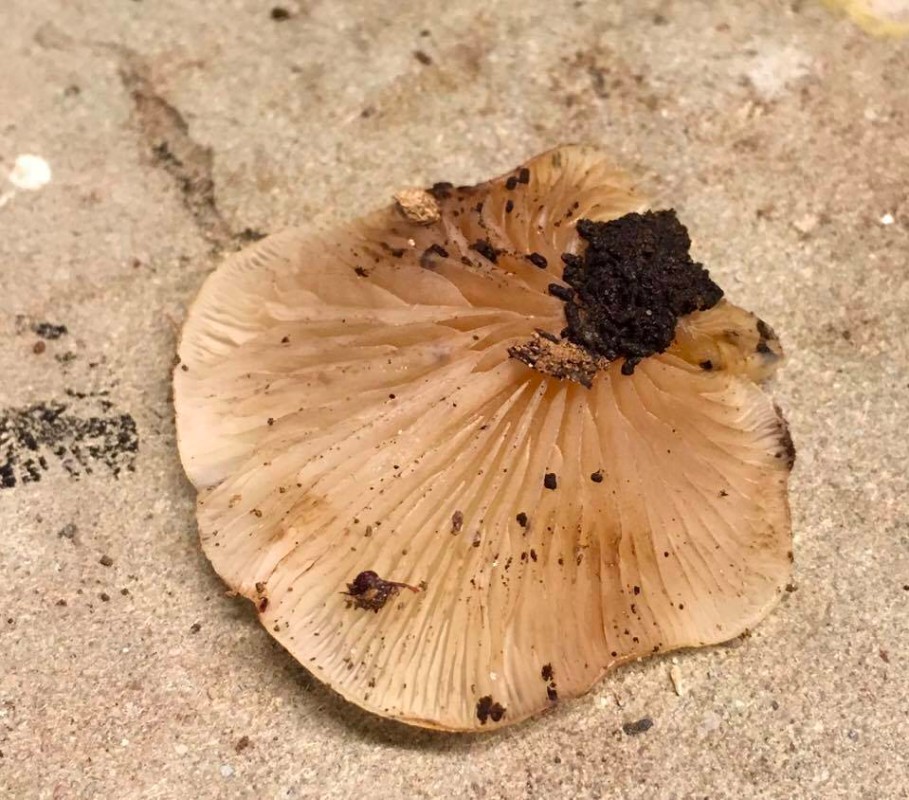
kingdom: Fungi
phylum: Basidiomycota
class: Agaricomycetes
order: Agaricales
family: Crepidotaceae
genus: Crepidotus
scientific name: Crepidotus
